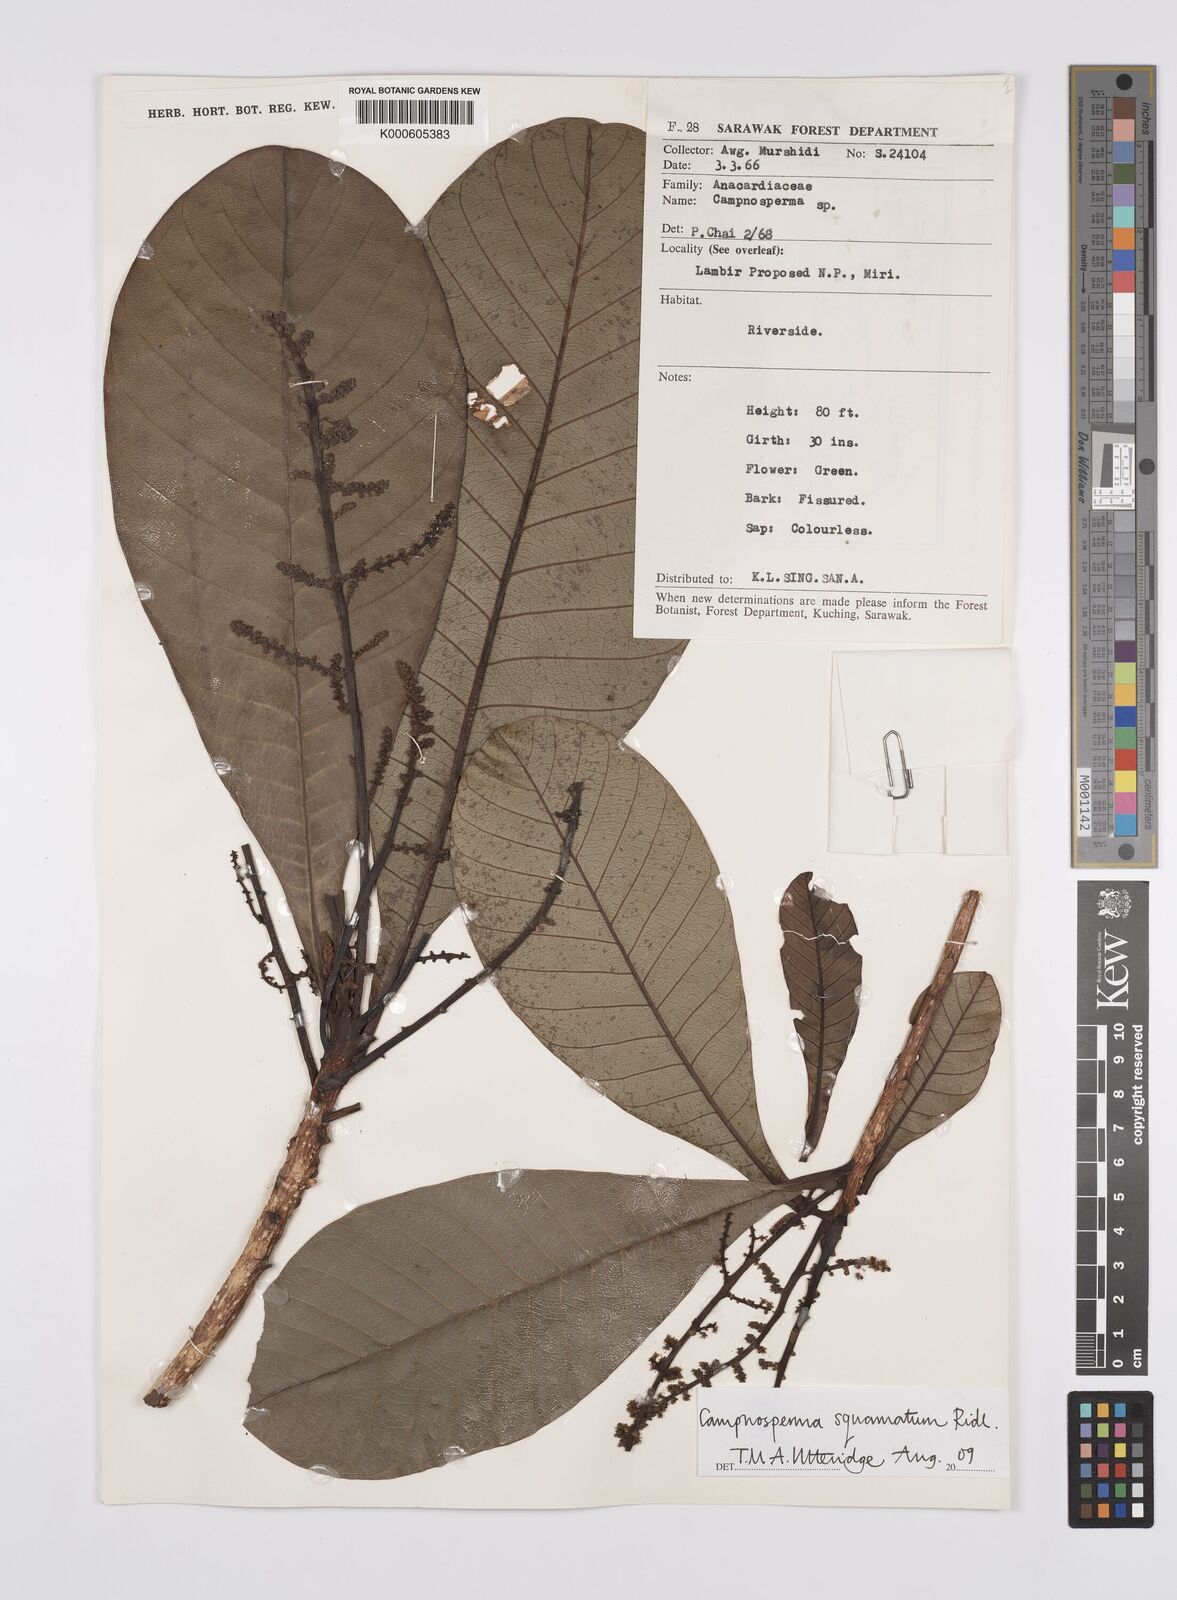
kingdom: Plantae
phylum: Tracheophyta
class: Magnoliopsida
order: Sapindales
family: Anacardiaceae
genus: Campnosperma
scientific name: Campnosperma
